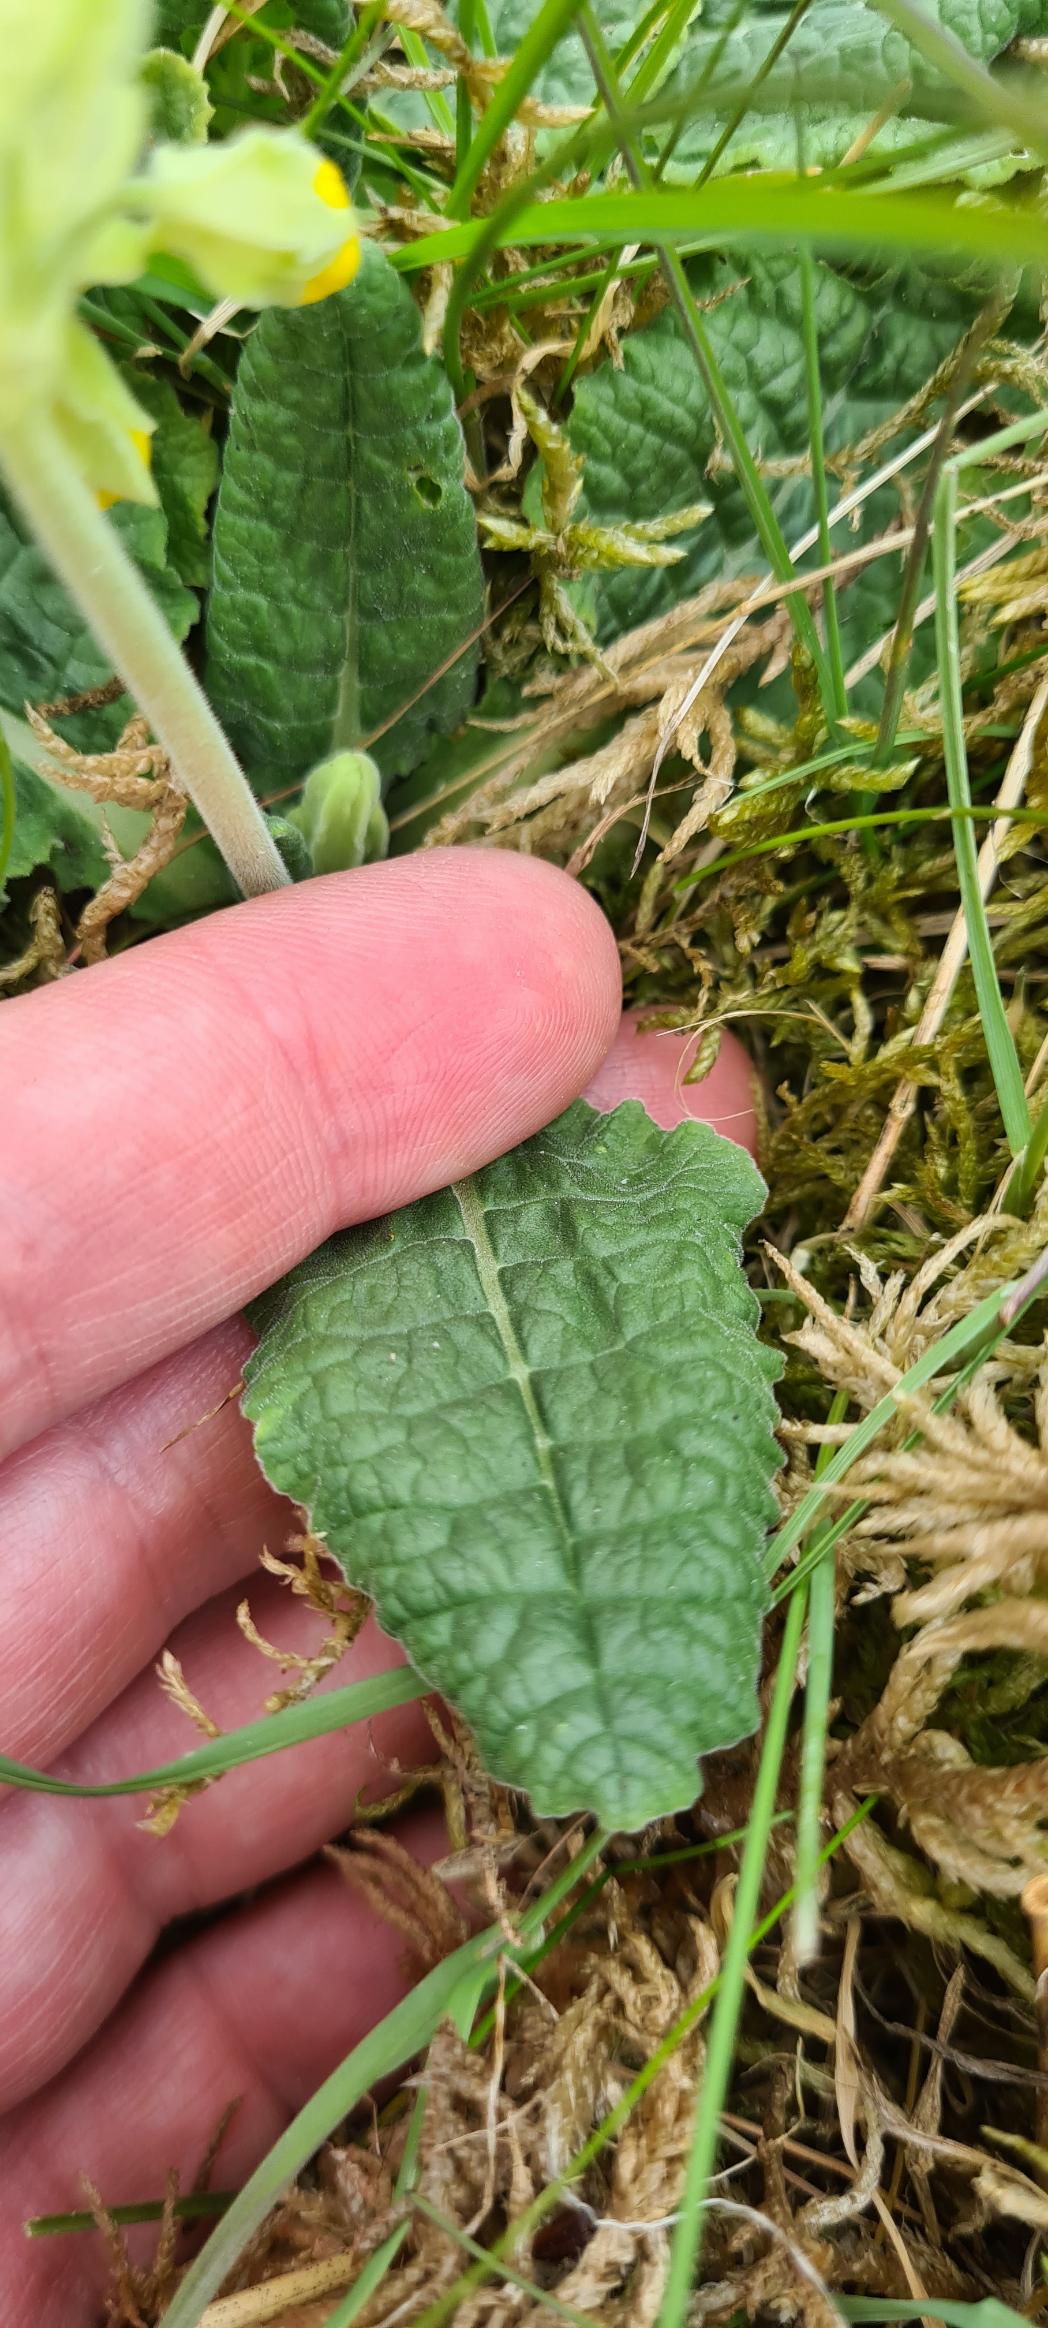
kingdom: Plantae
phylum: Tracheophyta
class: Magnoliopsida
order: Ericales
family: Primulaceae
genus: Primula
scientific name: Primula veris
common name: Hulkravet kodriver
